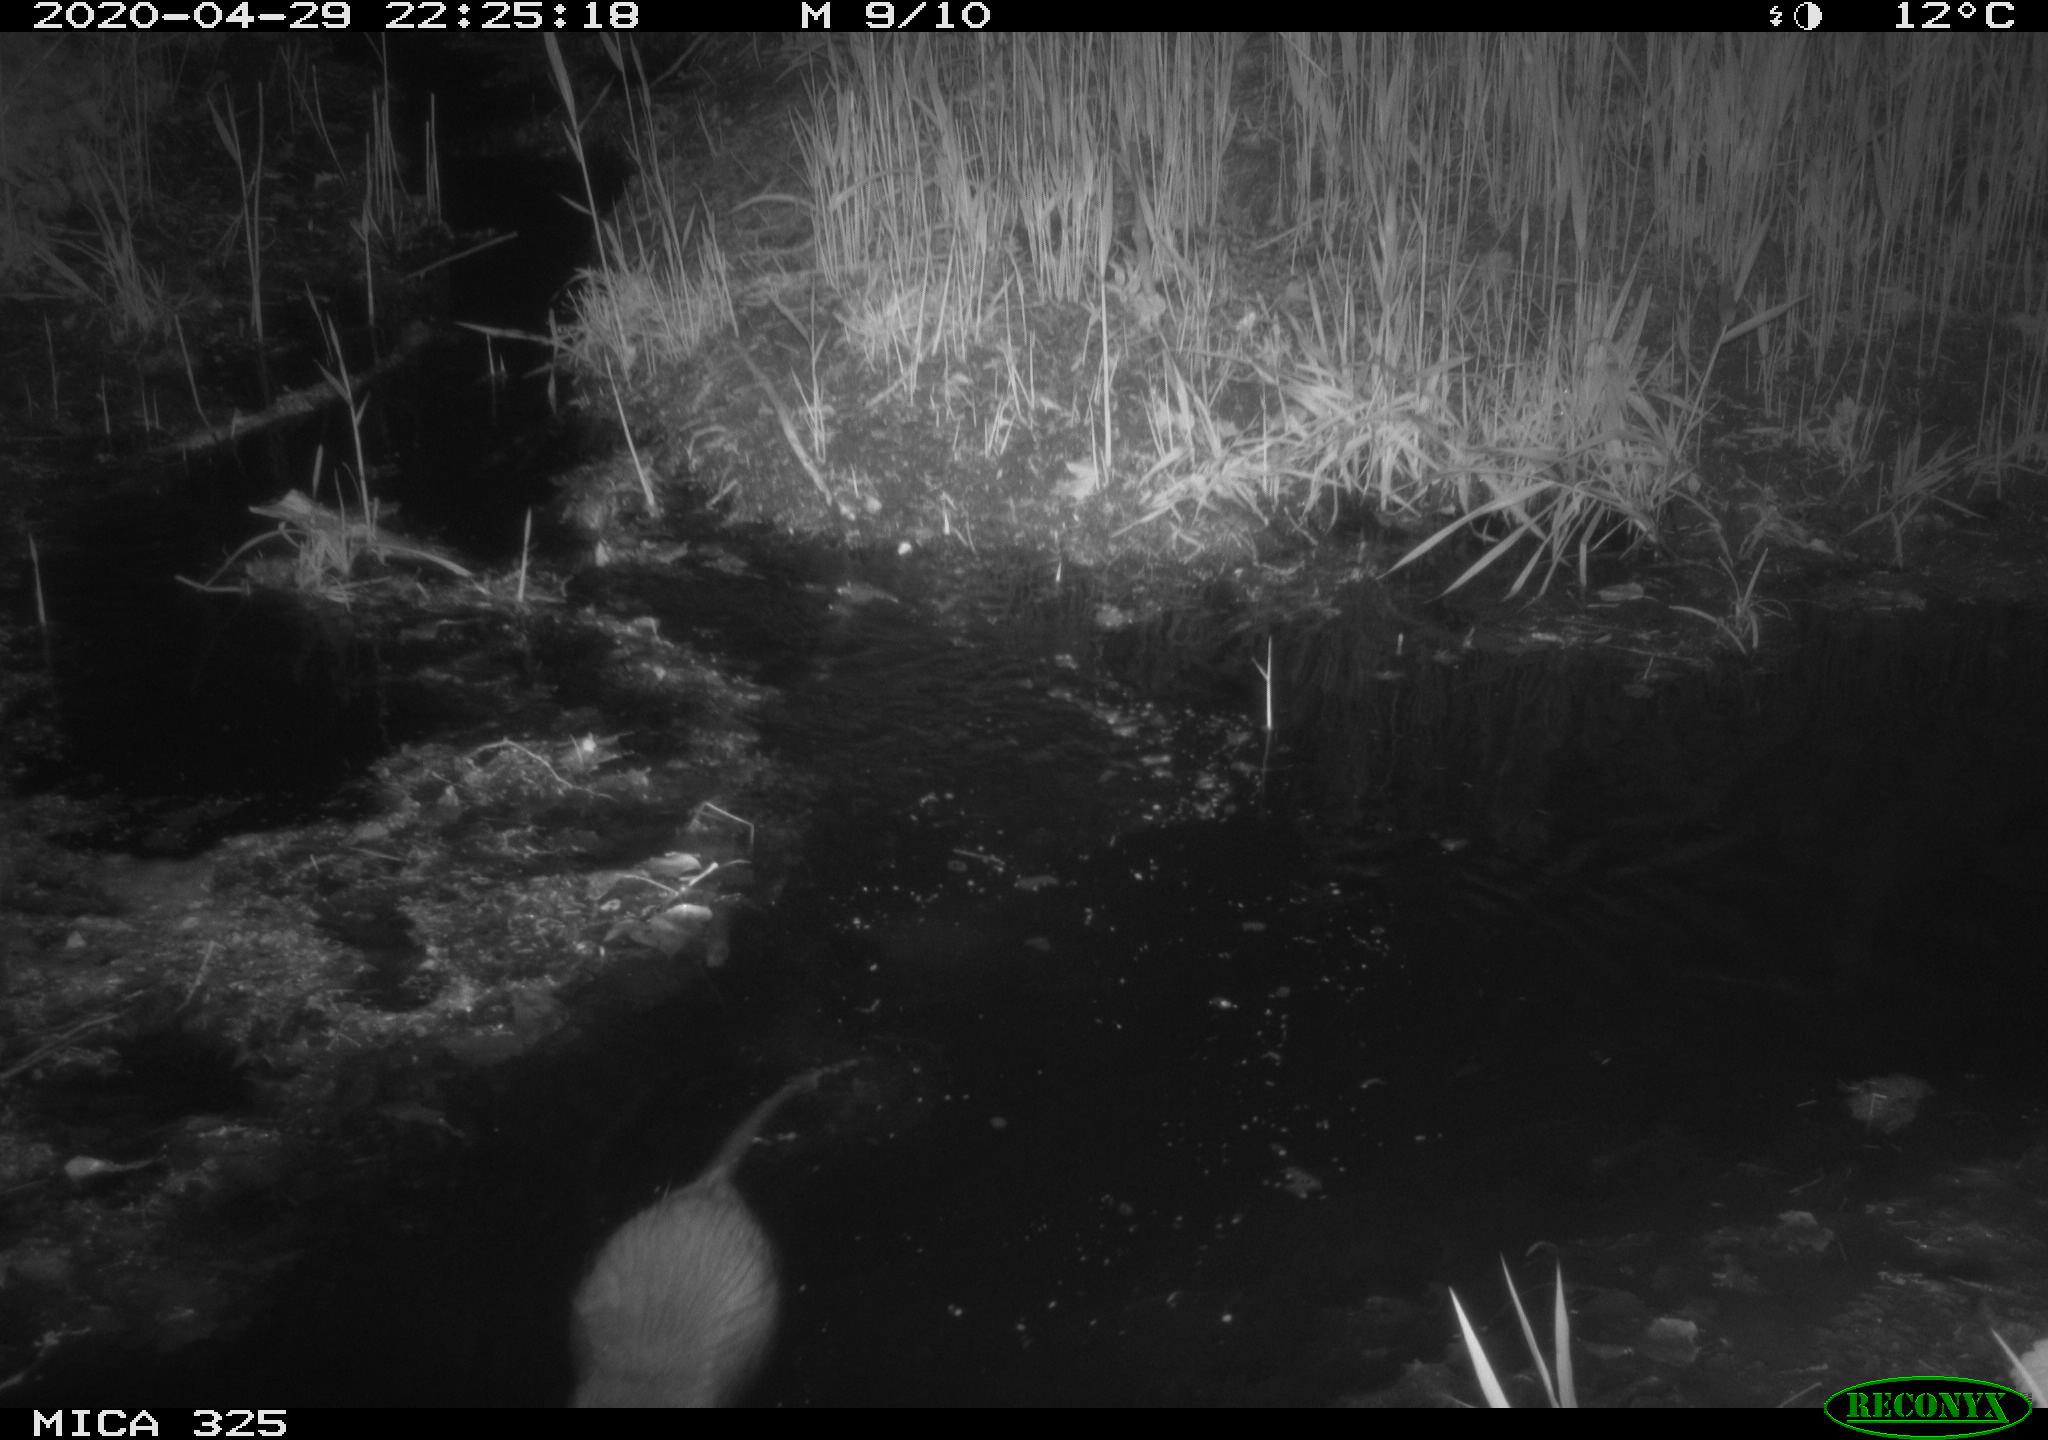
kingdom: Animalia
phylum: Chordata
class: Mammalia
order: Rodentia
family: Myocastoridae
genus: Myocastor
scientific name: Myocastor coypus
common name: Coypu
